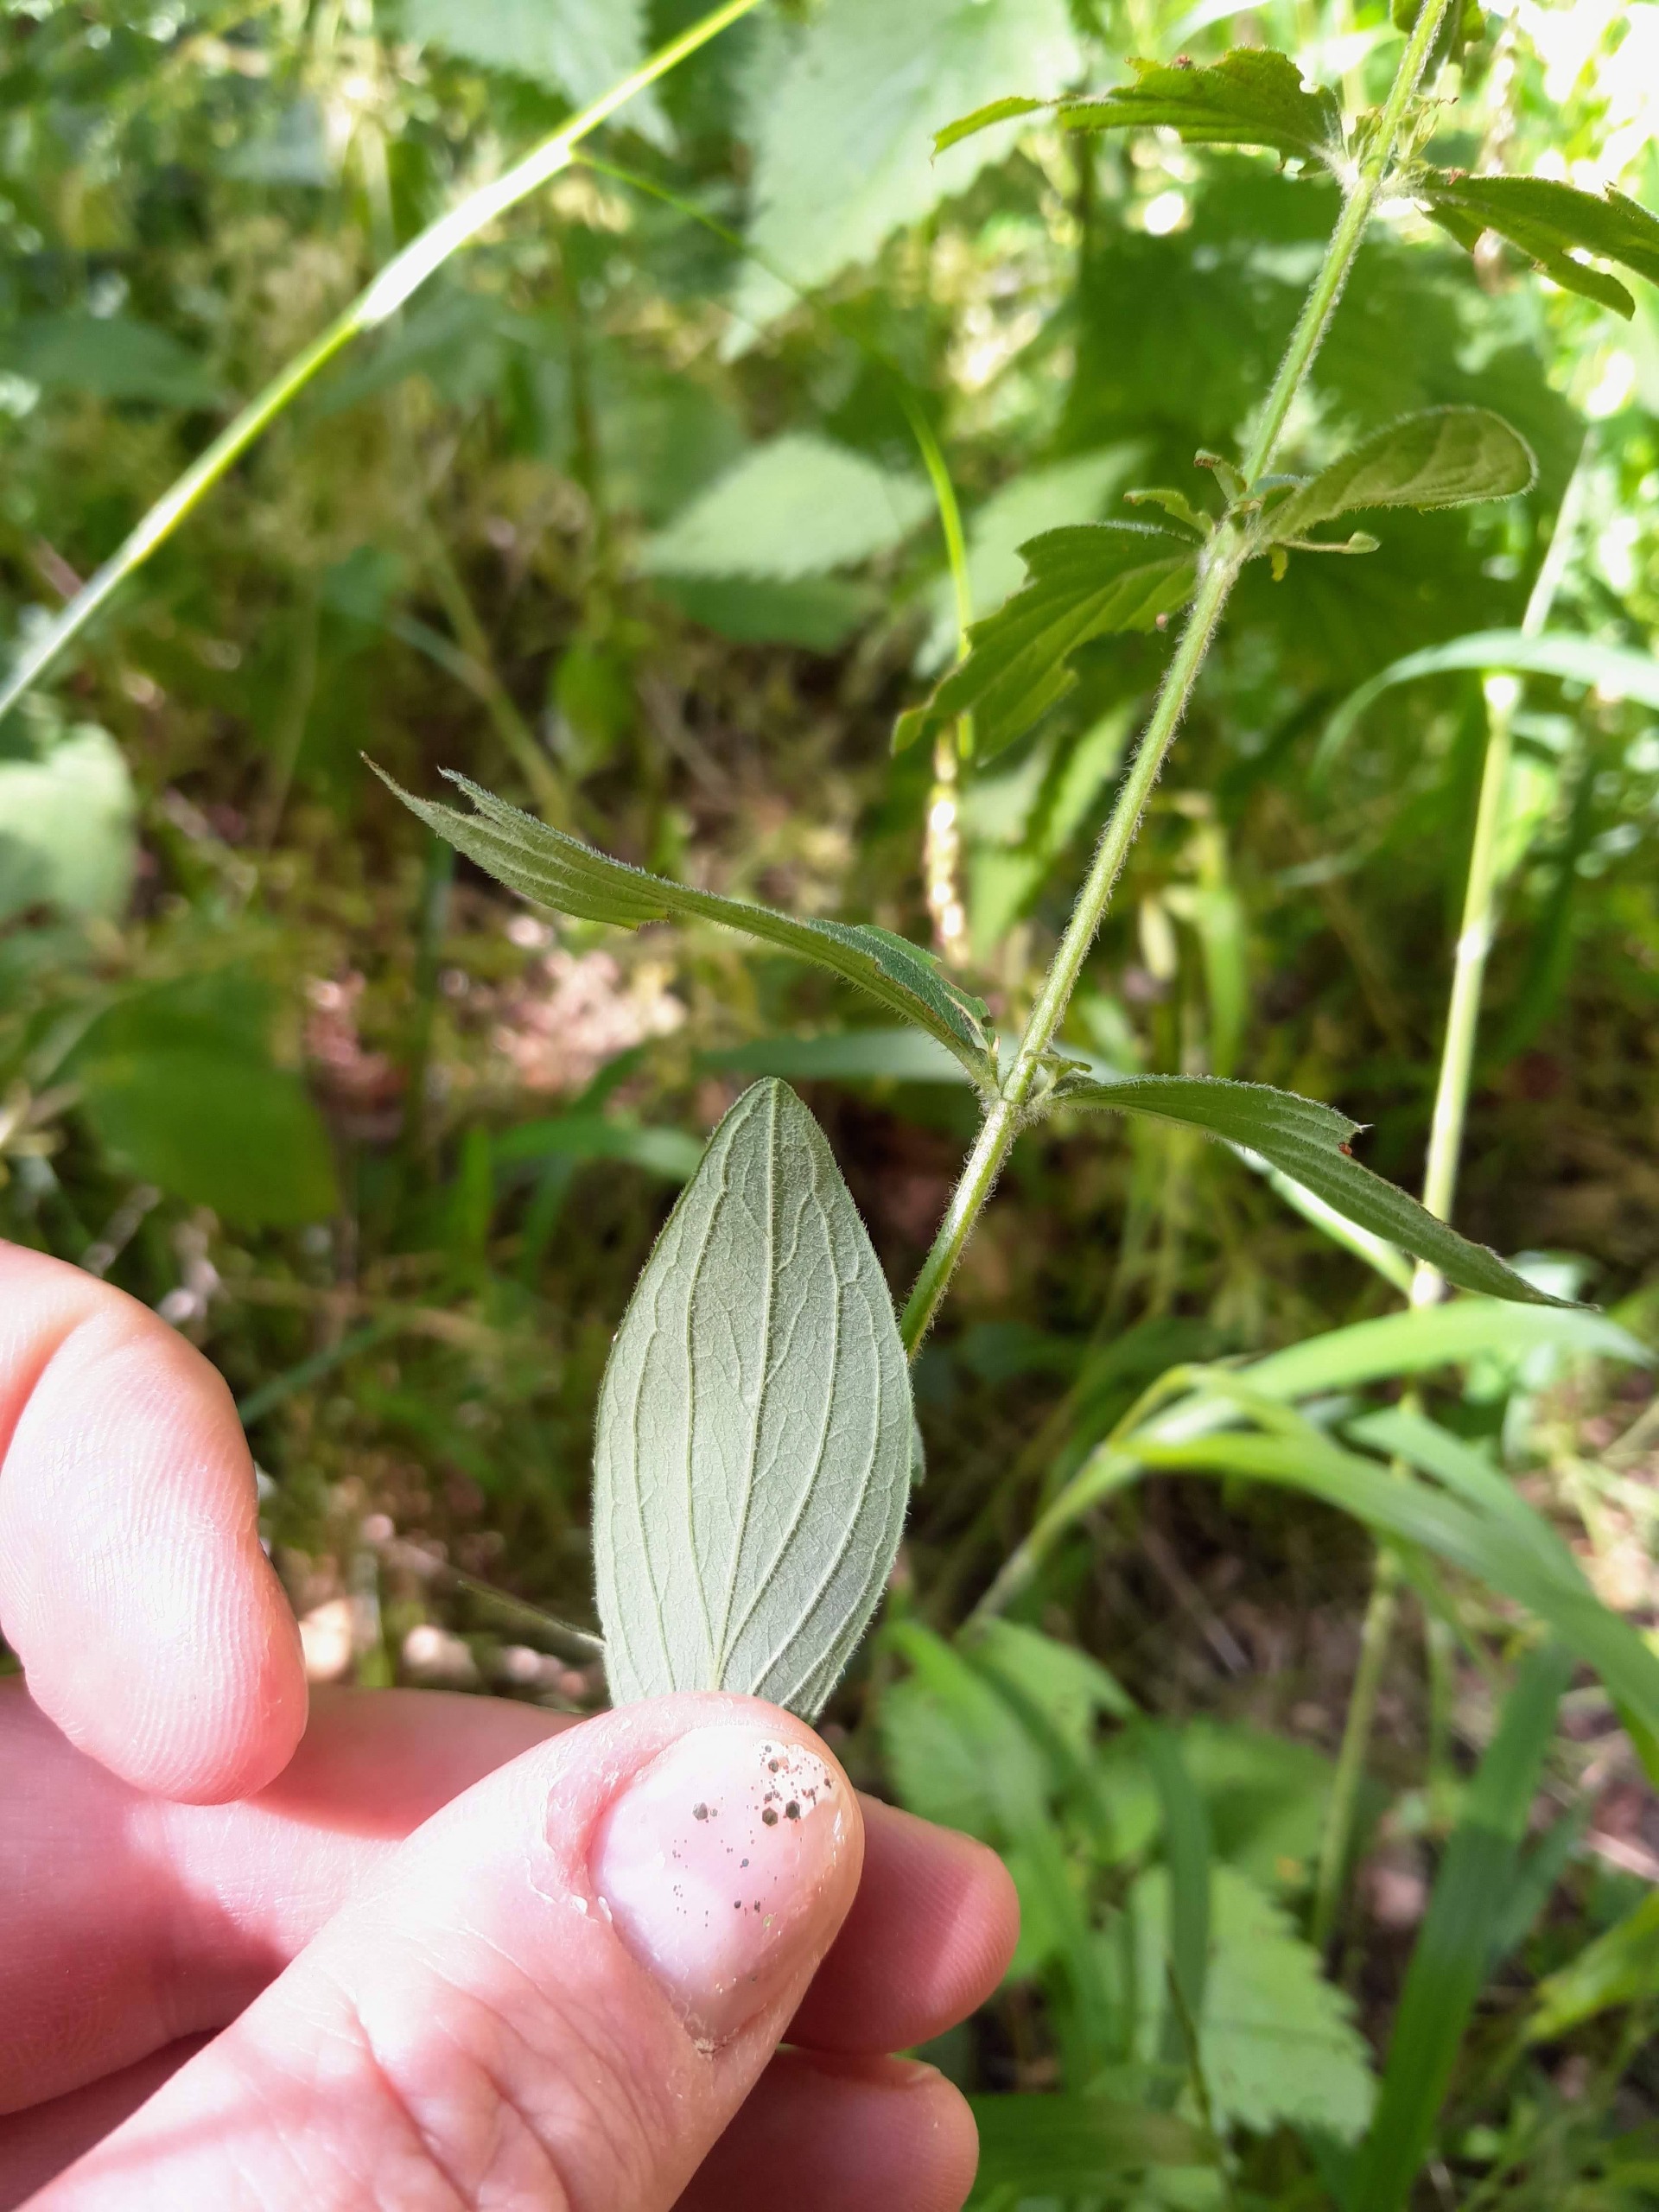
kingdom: Plantae
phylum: Tracheophyta
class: Magnoliopsida
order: Malpighiales
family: Hypericaceae
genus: Hypericum
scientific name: Hypericum hirsutum
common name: Lådden perikon
